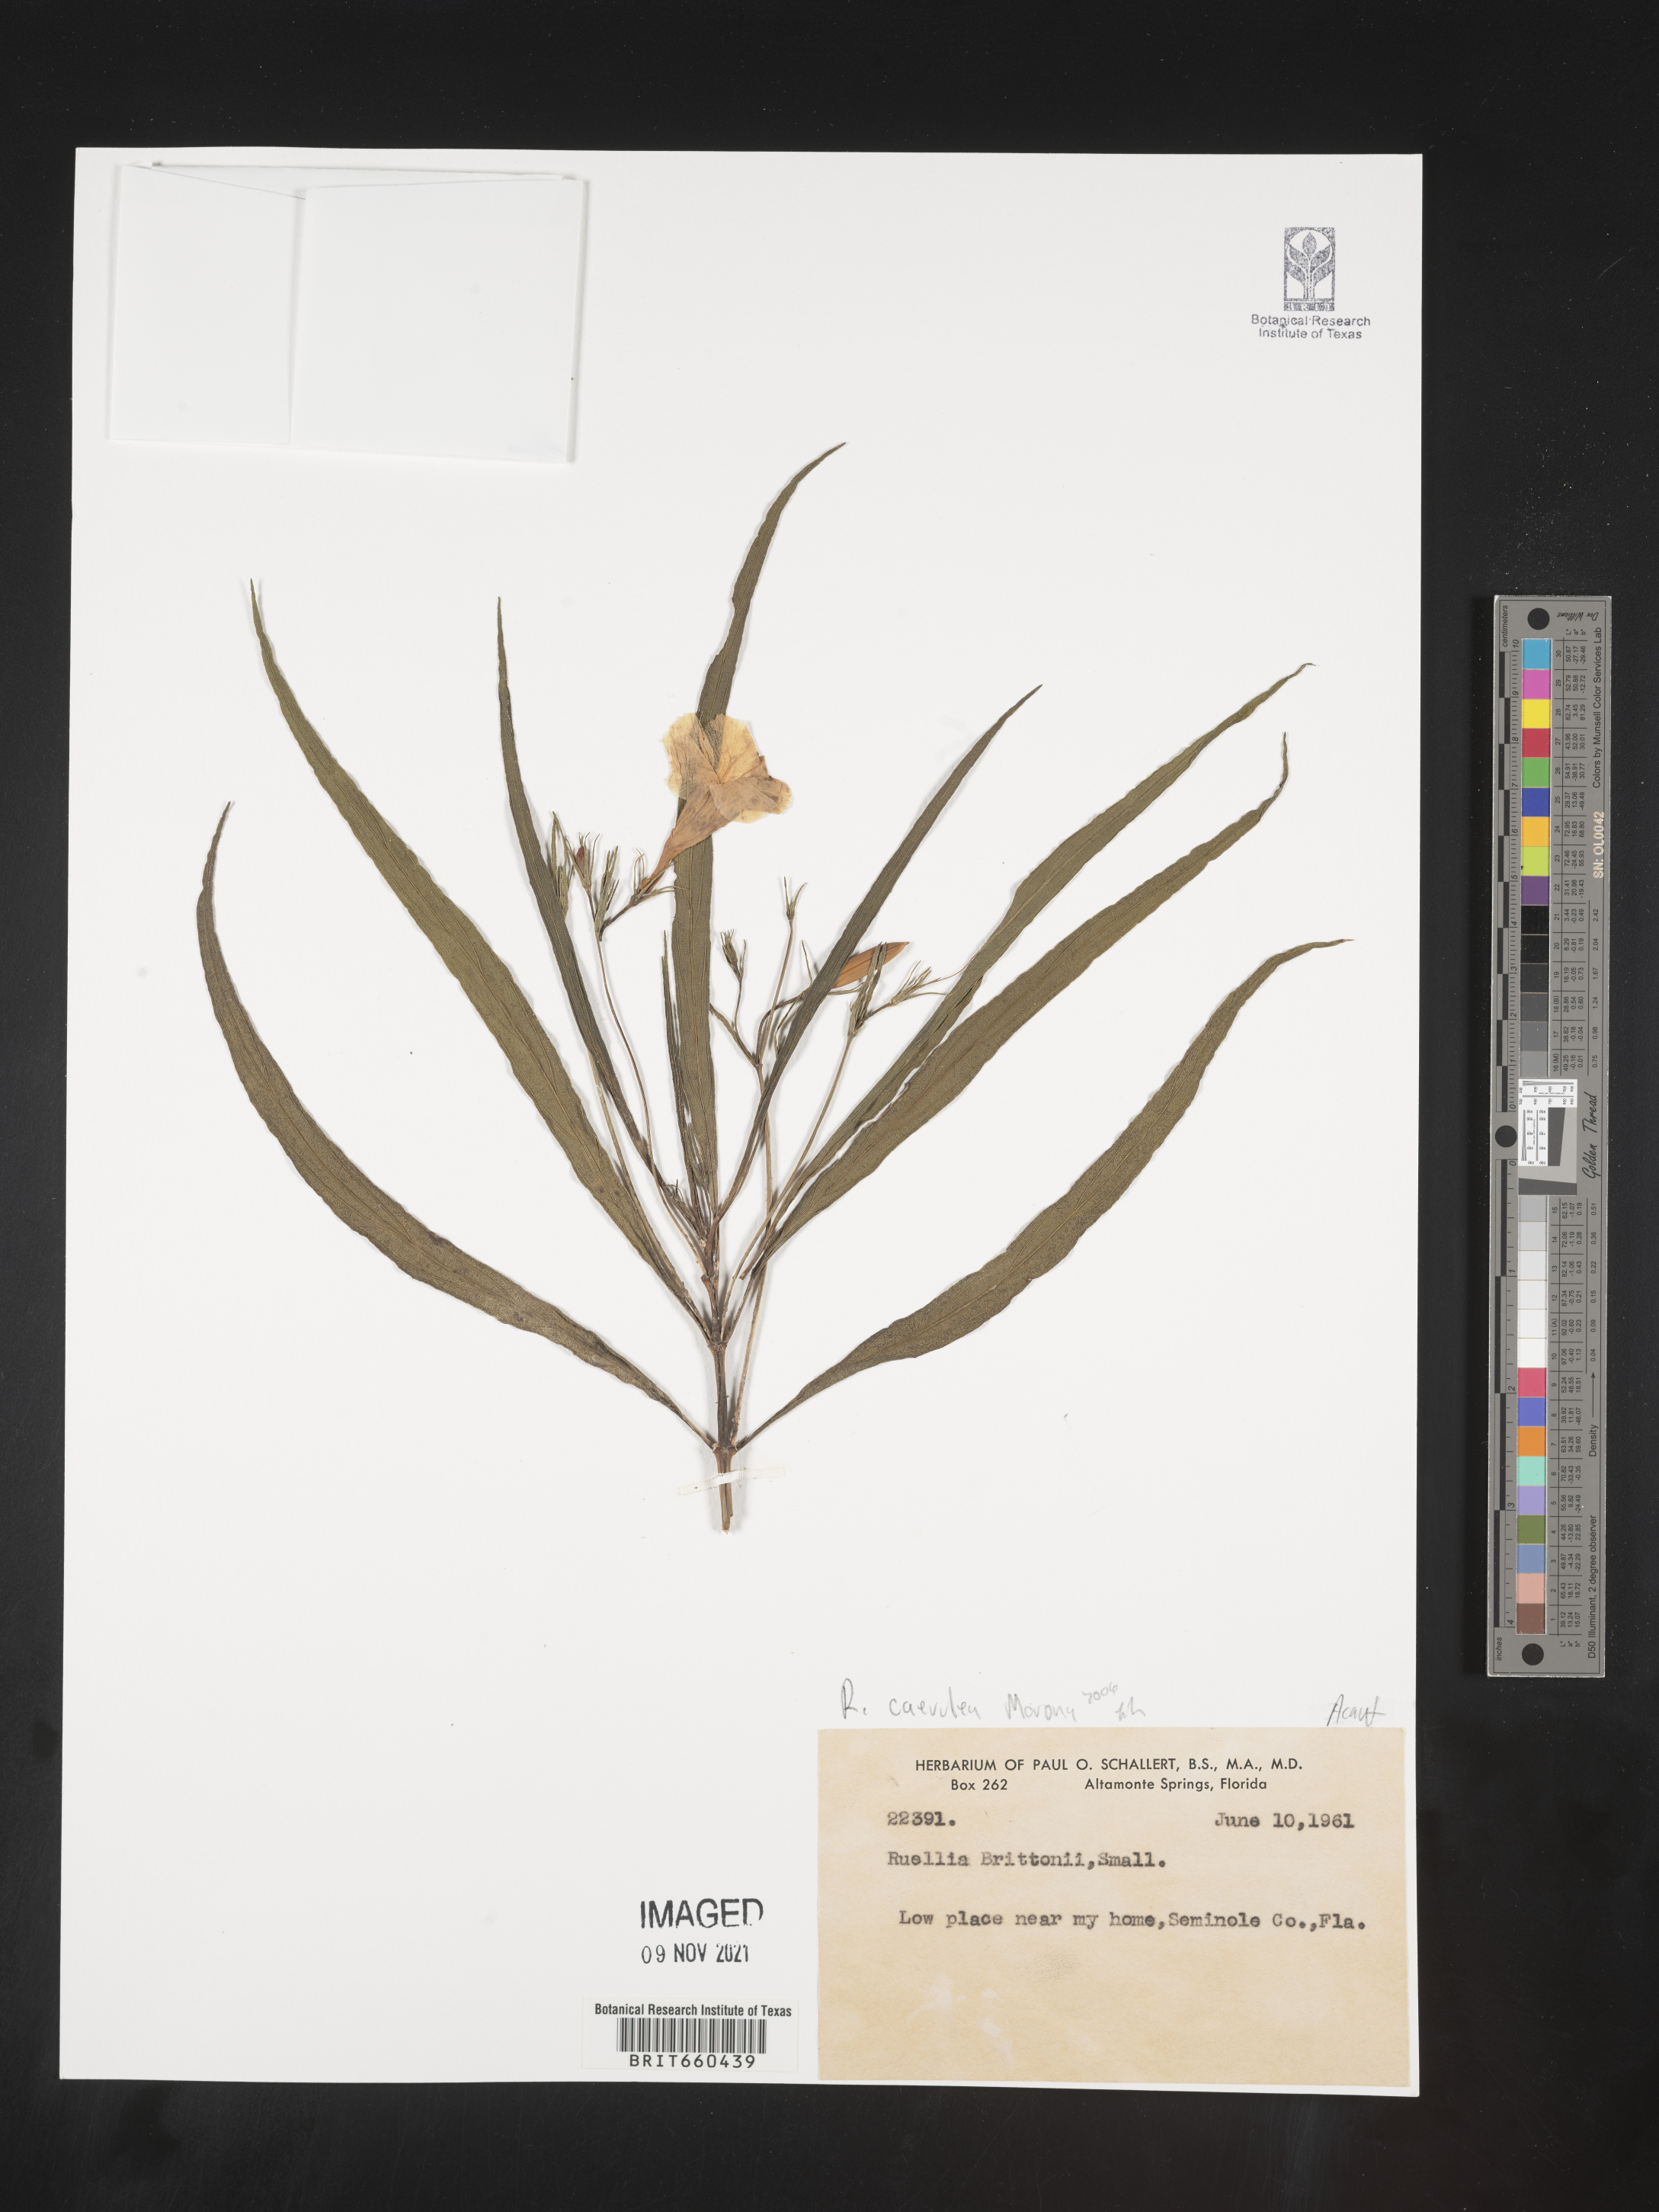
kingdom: Plantae
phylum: Tracheophyta
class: Magnoliopsida
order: Lamiales
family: Acanthaceae
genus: Ruellia
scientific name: Ruellia simplex
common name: Softseed wild petunia
